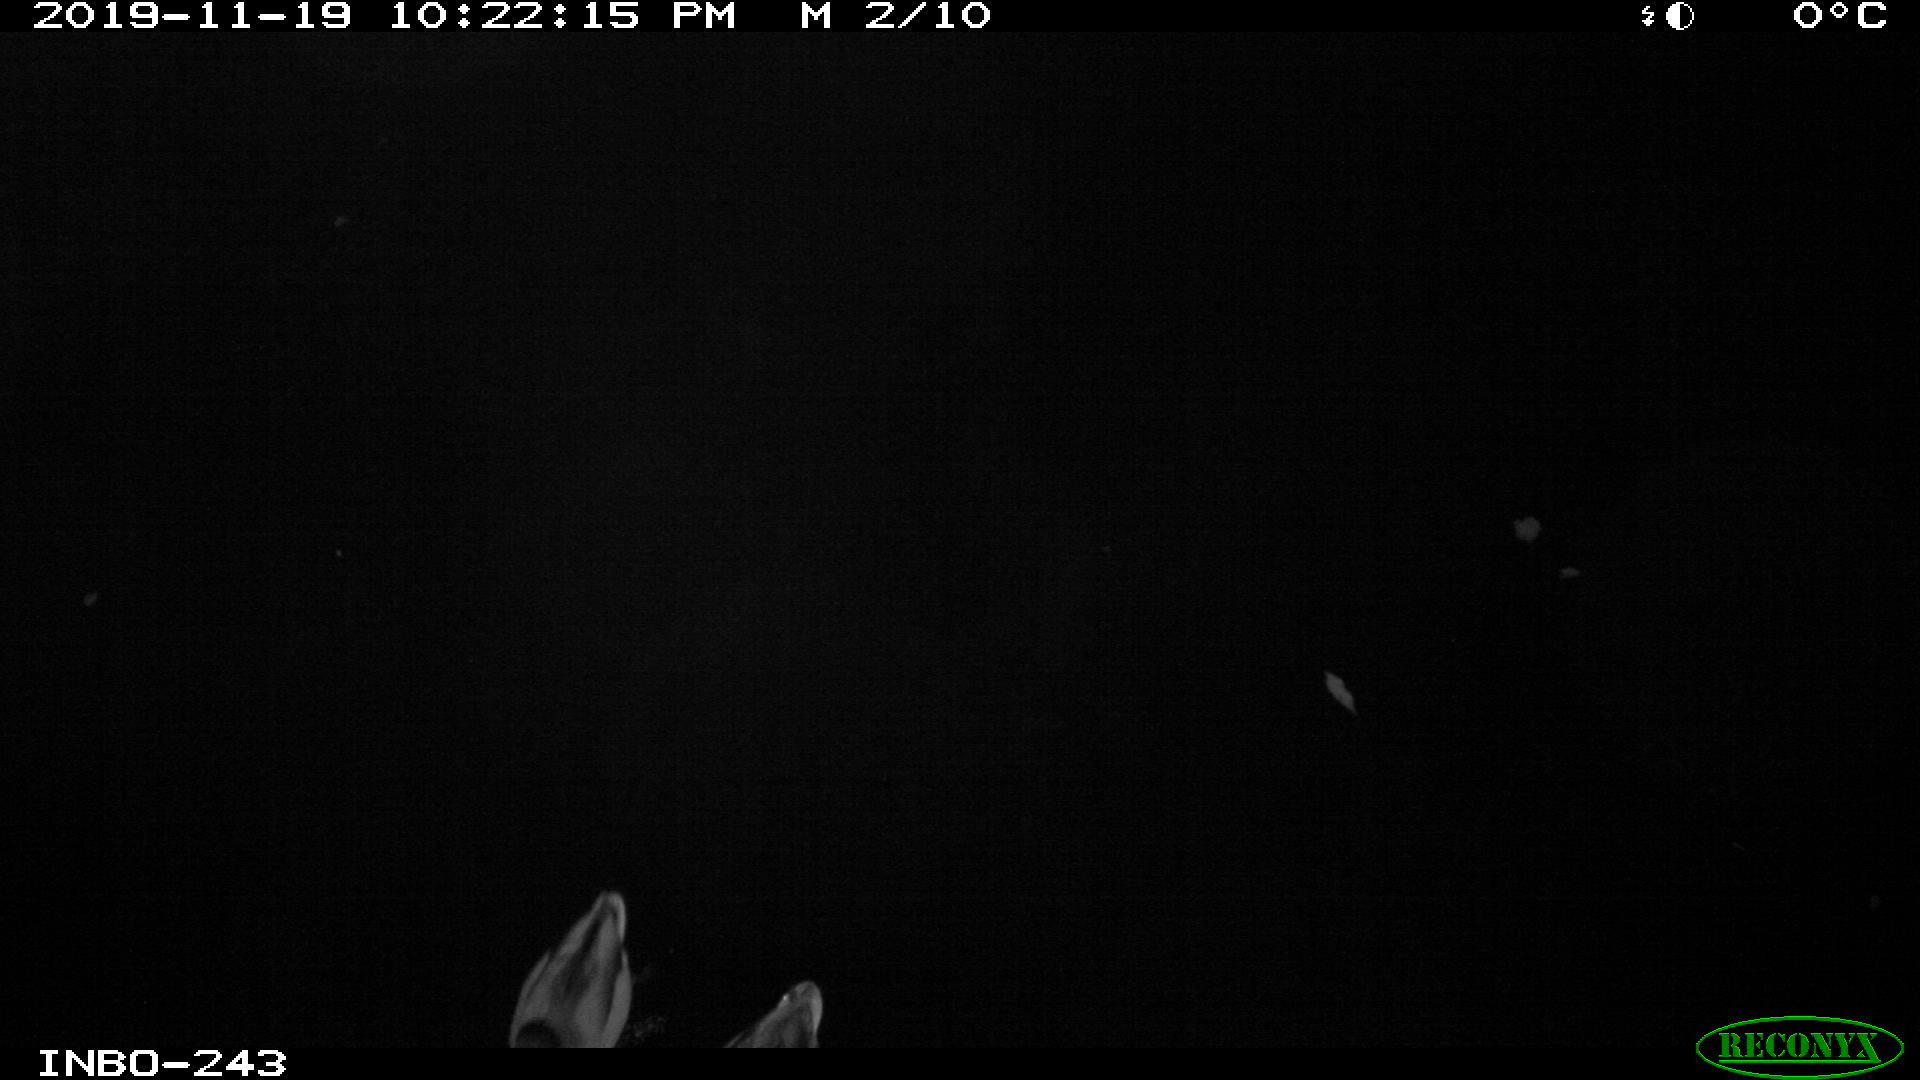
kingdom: Animalia
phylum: Chordata
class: Aves
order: Anseriformes
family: Anatidae
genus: Anas
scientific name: Anas platyrhynchos
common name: Mallard
